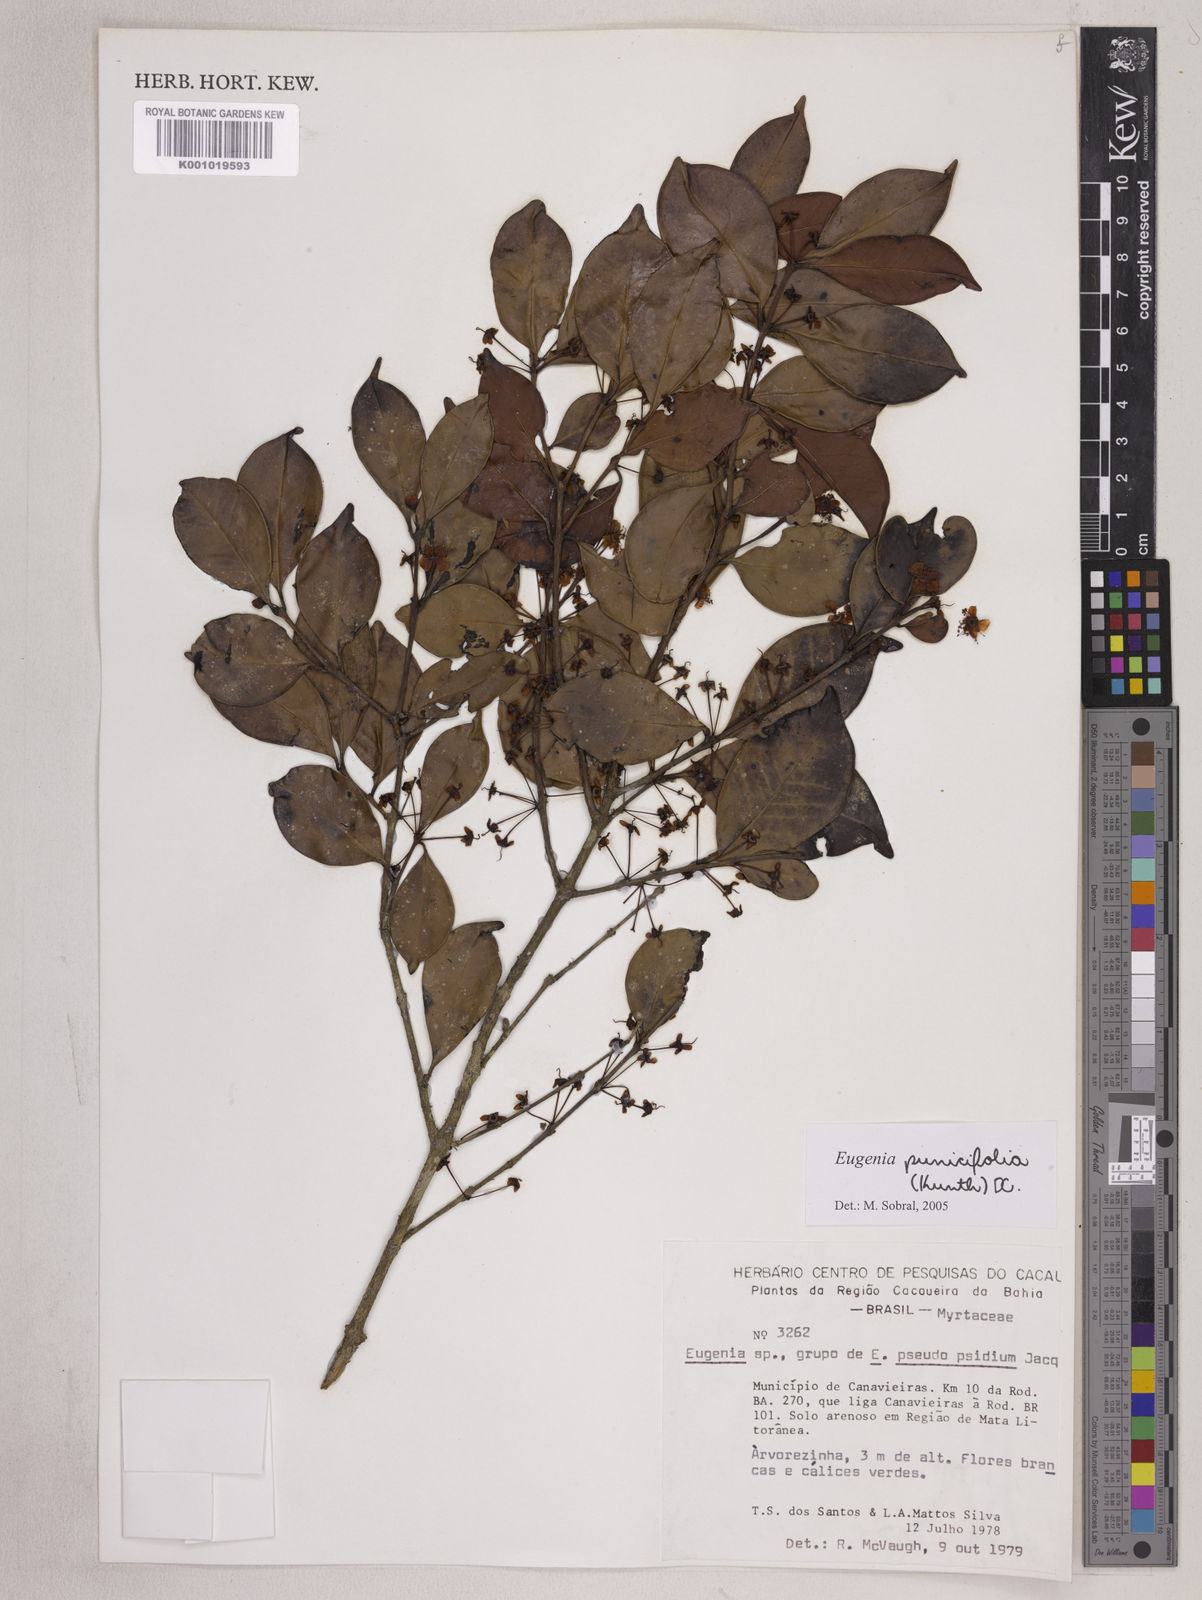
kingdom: Plantae
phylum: Tracheophyta
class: Magnoliopsida
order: Myrtales
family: Myrtaceae
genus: Eugenia
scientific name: Eugenia punicifolia
